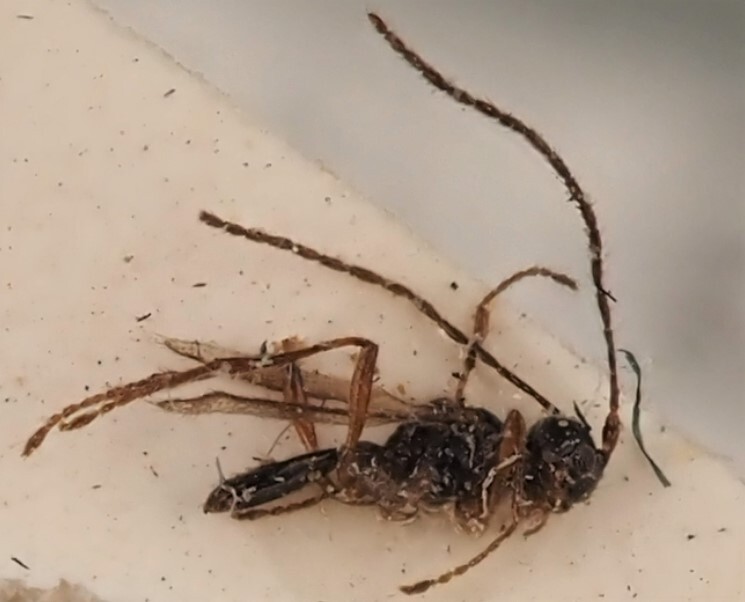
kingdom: Animalia
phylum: Arthropoda
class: Insecta
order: Hymenoptera
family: Braconidae
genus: Atopandrium
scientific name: Atopandrium debilitatum
